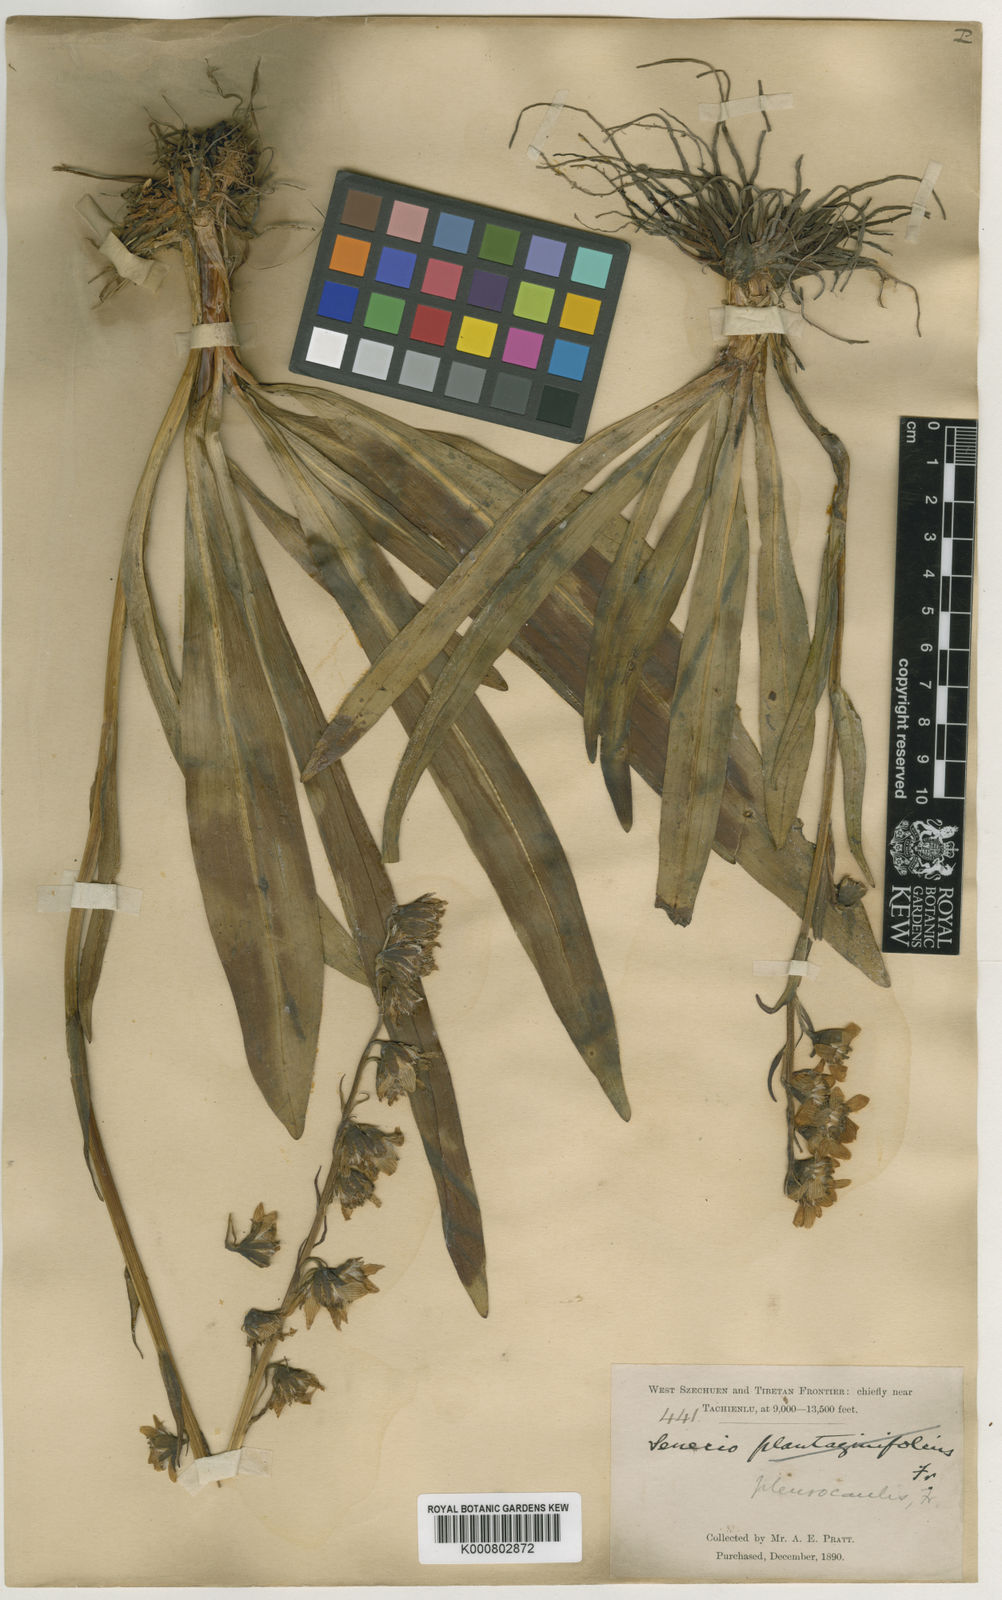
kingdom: Plantae
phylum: Tracheophyta
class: Magnoliopsida
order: Asterales
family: Asteraceae
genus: Ligularia
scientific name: Ligularia pleurocaulis
